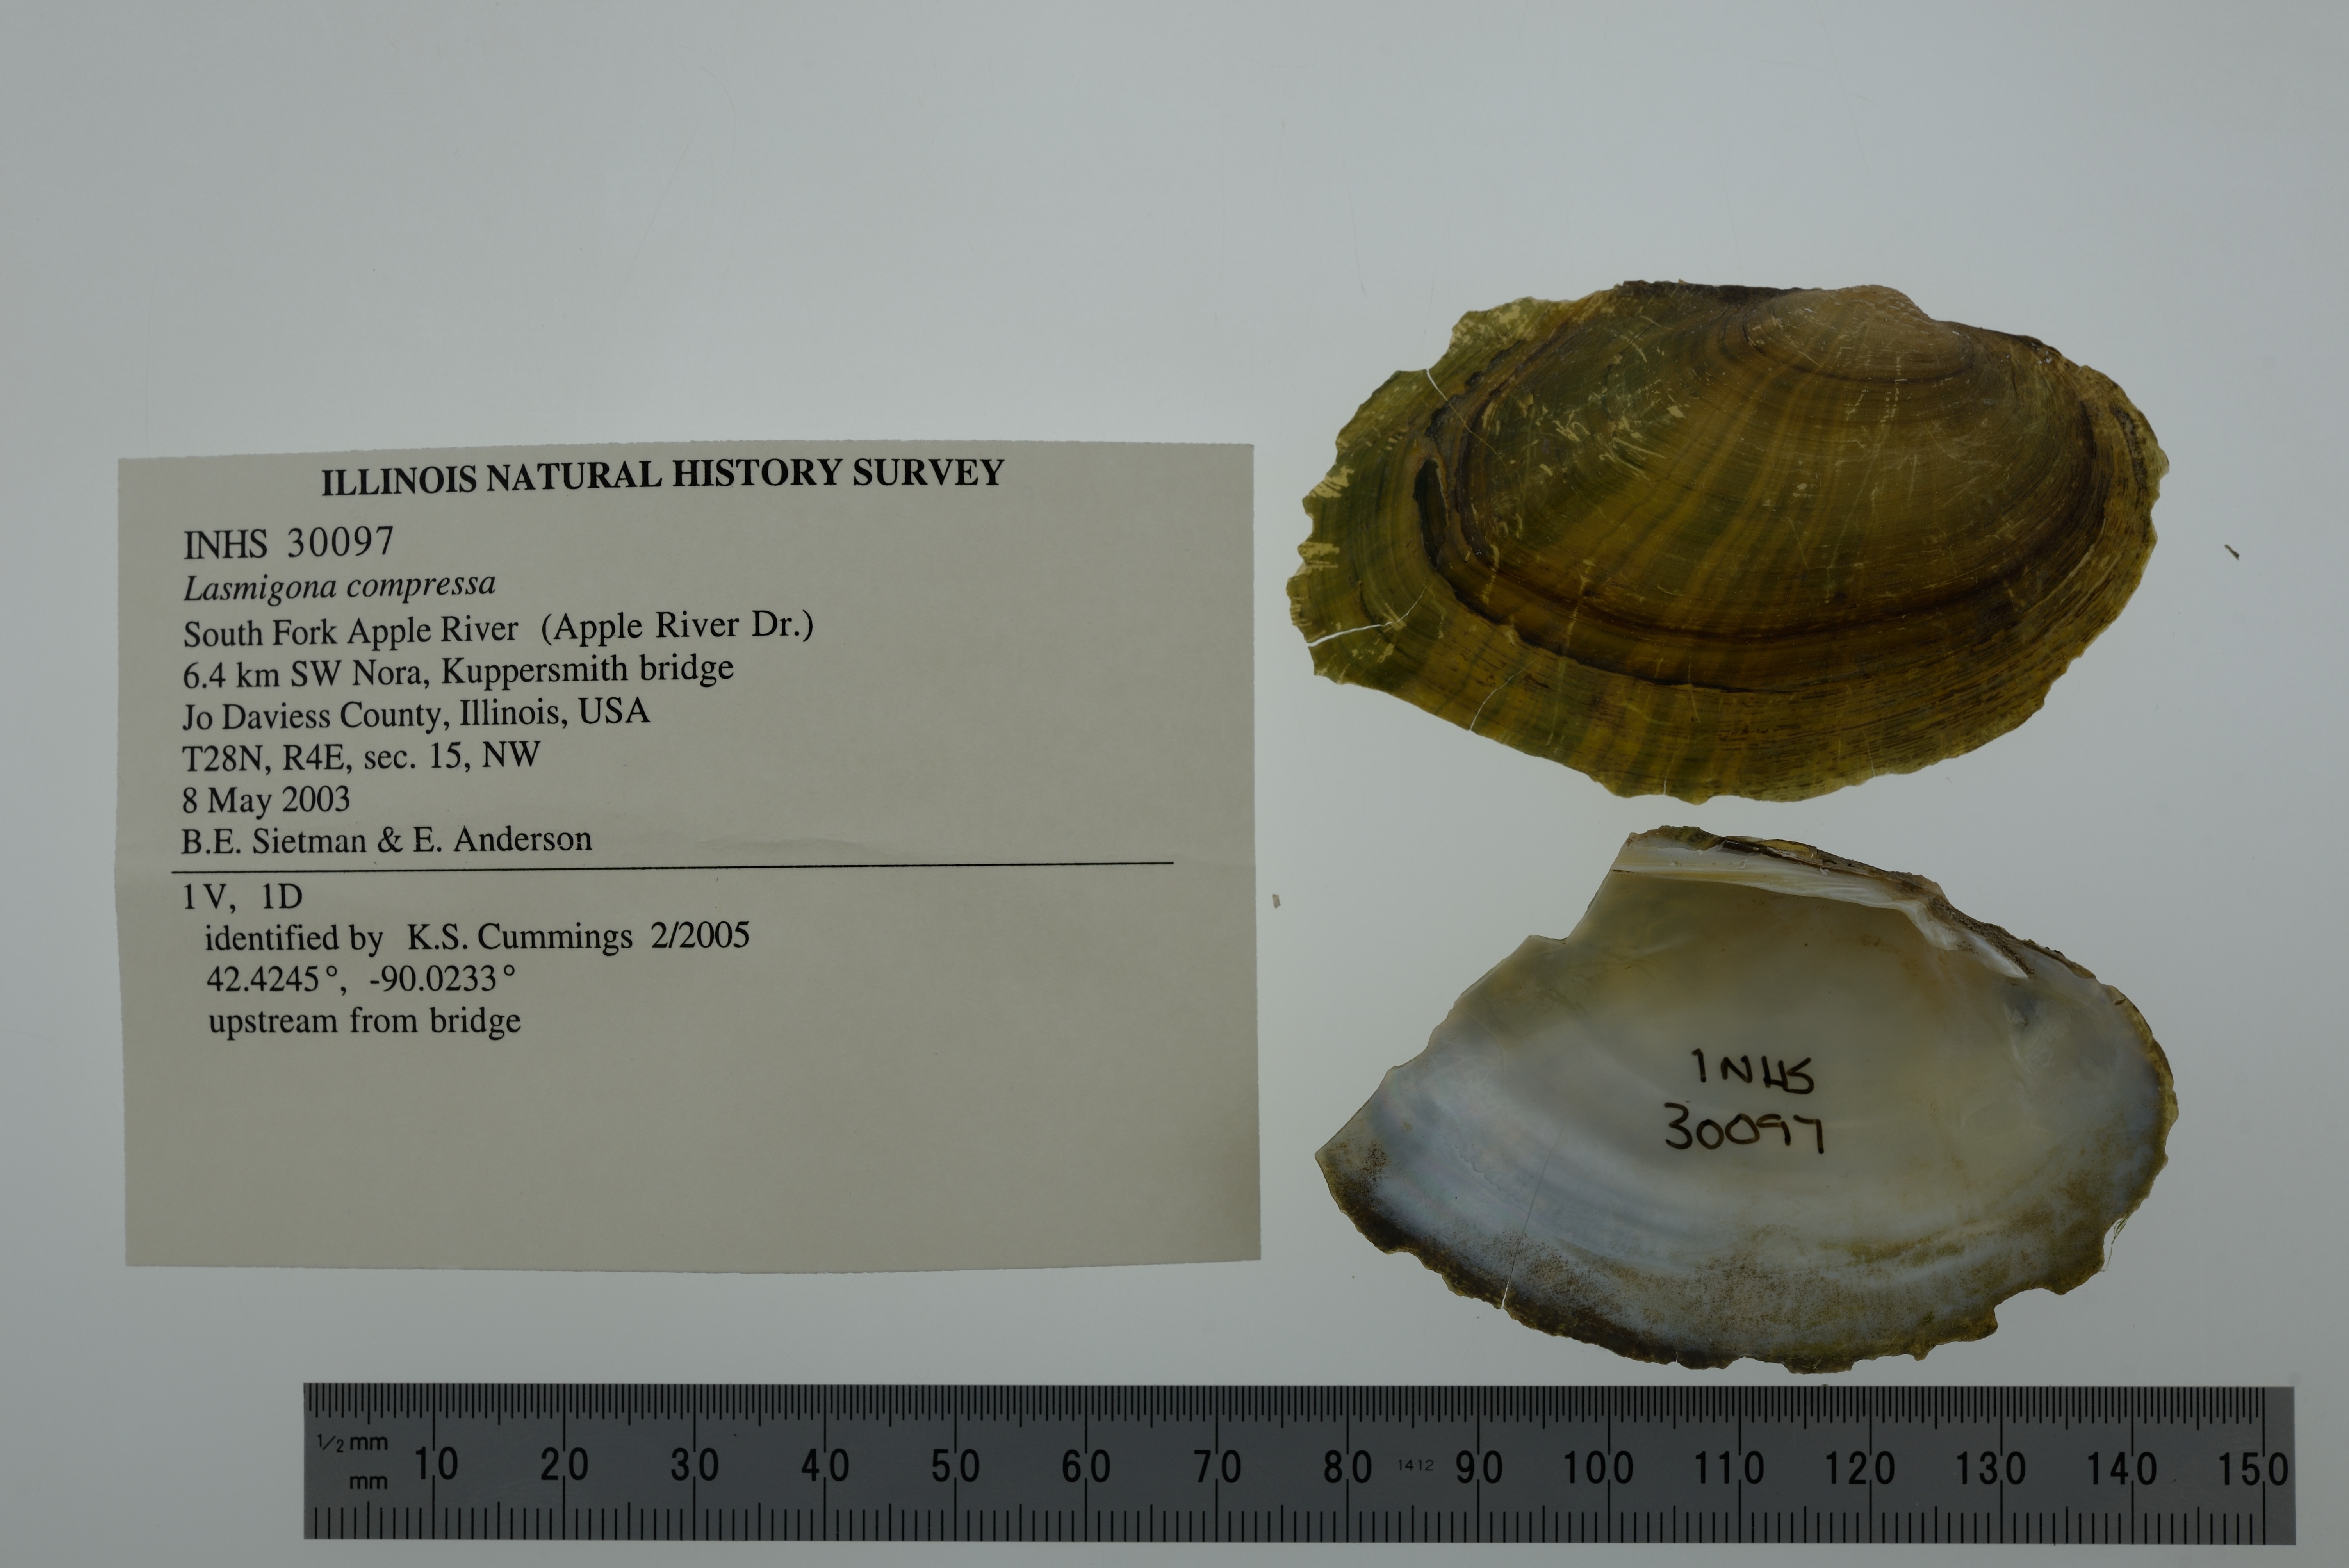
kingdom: Animalia
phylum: Mollusca
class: Bivalvia
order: Unionida
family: Unionidae
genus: Lasmigona
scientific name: Lasmigona compressa
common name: Creek heelsplitter
